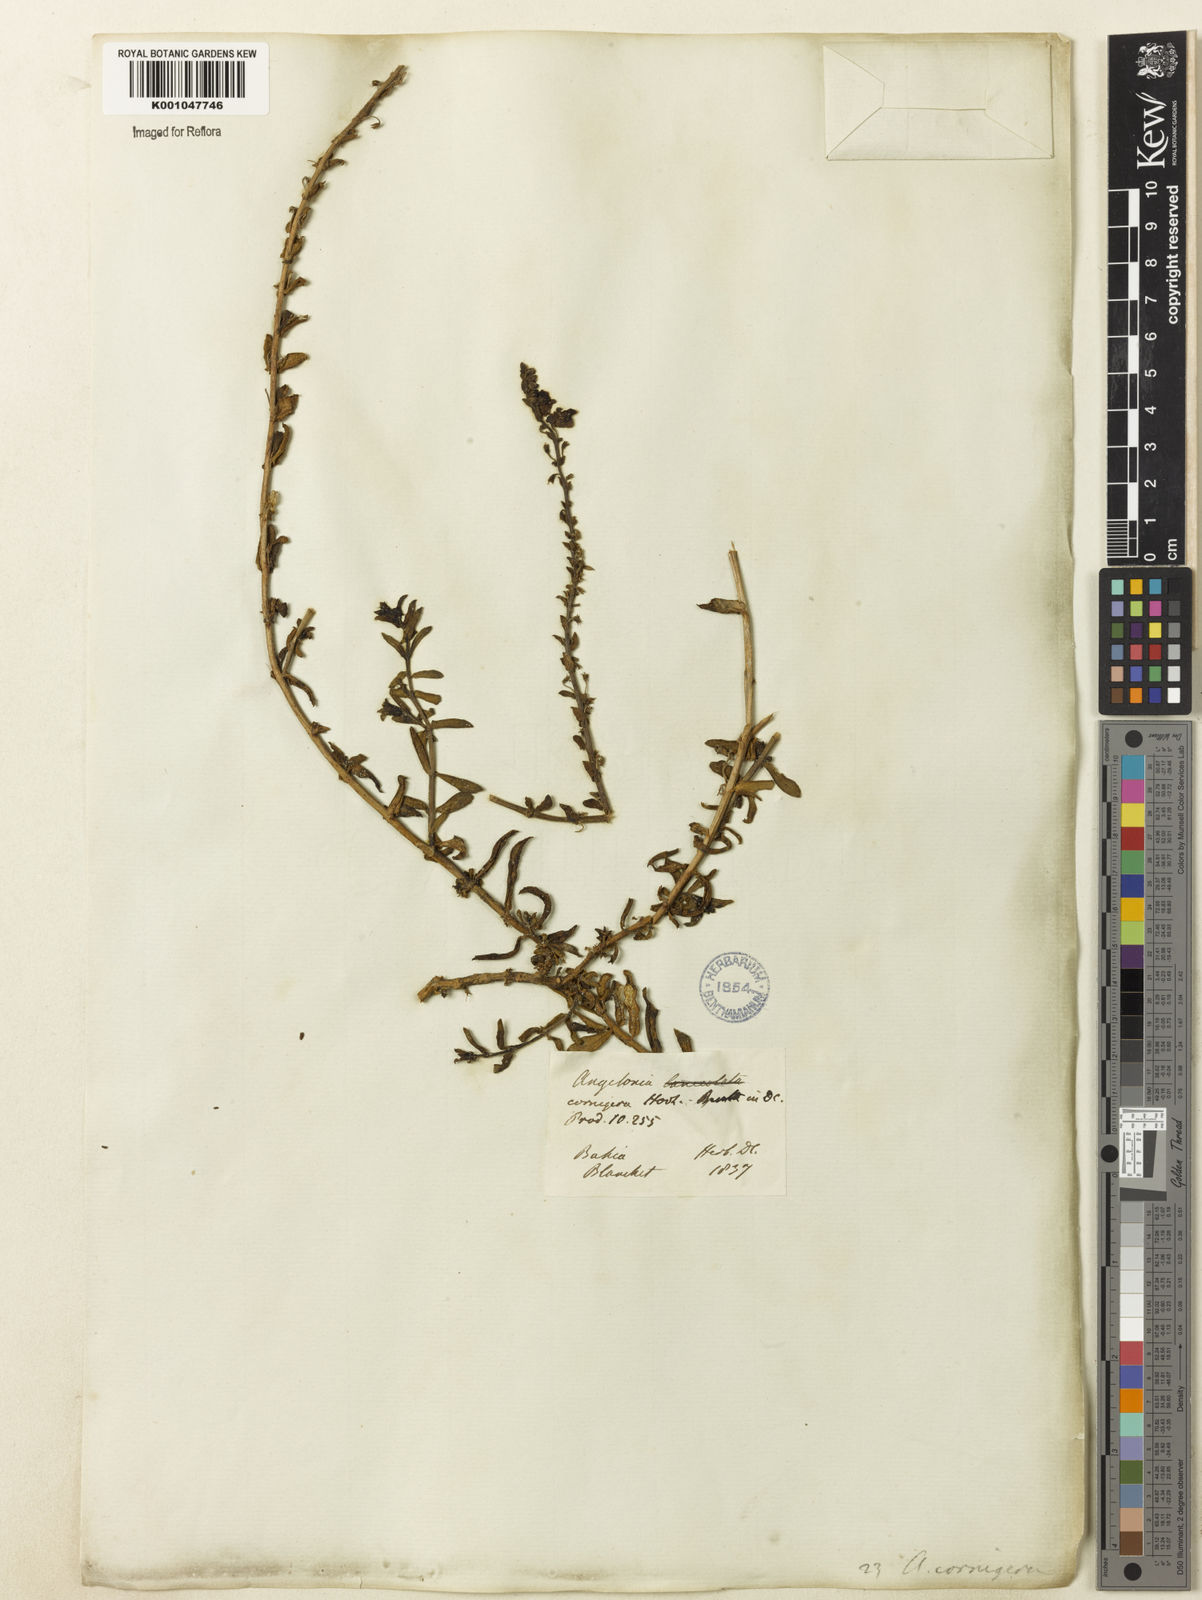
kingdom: Plantae
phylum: Tracheophyta
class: Magnoliopsida
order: Lamiales
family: Plantaginaceae
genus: Angelonia
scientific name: Angelonia cornigera
